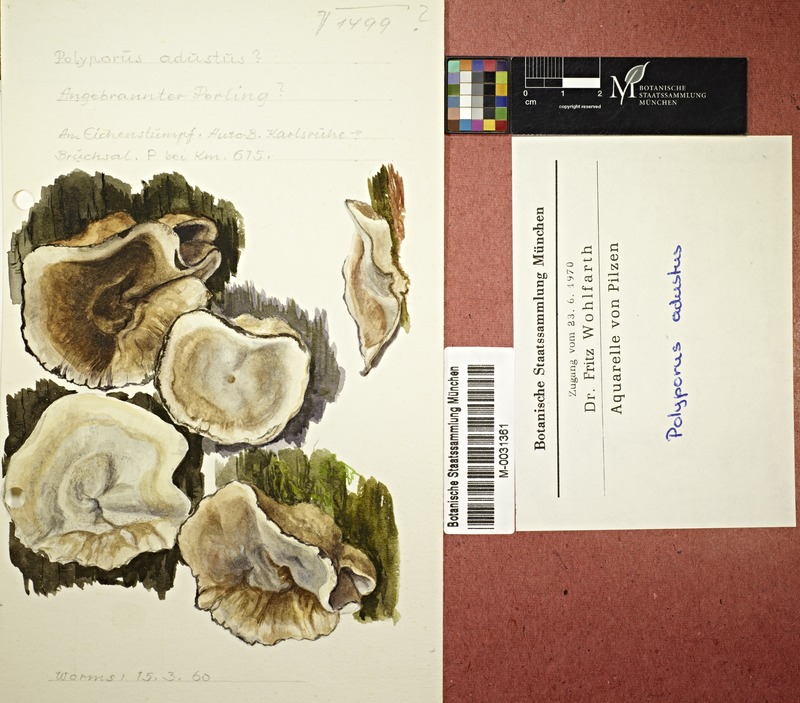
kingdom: Fungi
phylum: Basidiomycota
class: Agaricomycetes
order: Polyporales
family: Phanerochaetaceae
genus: Bjerkandera
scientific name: Bjerkandera adusta
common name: Smoky bracket
